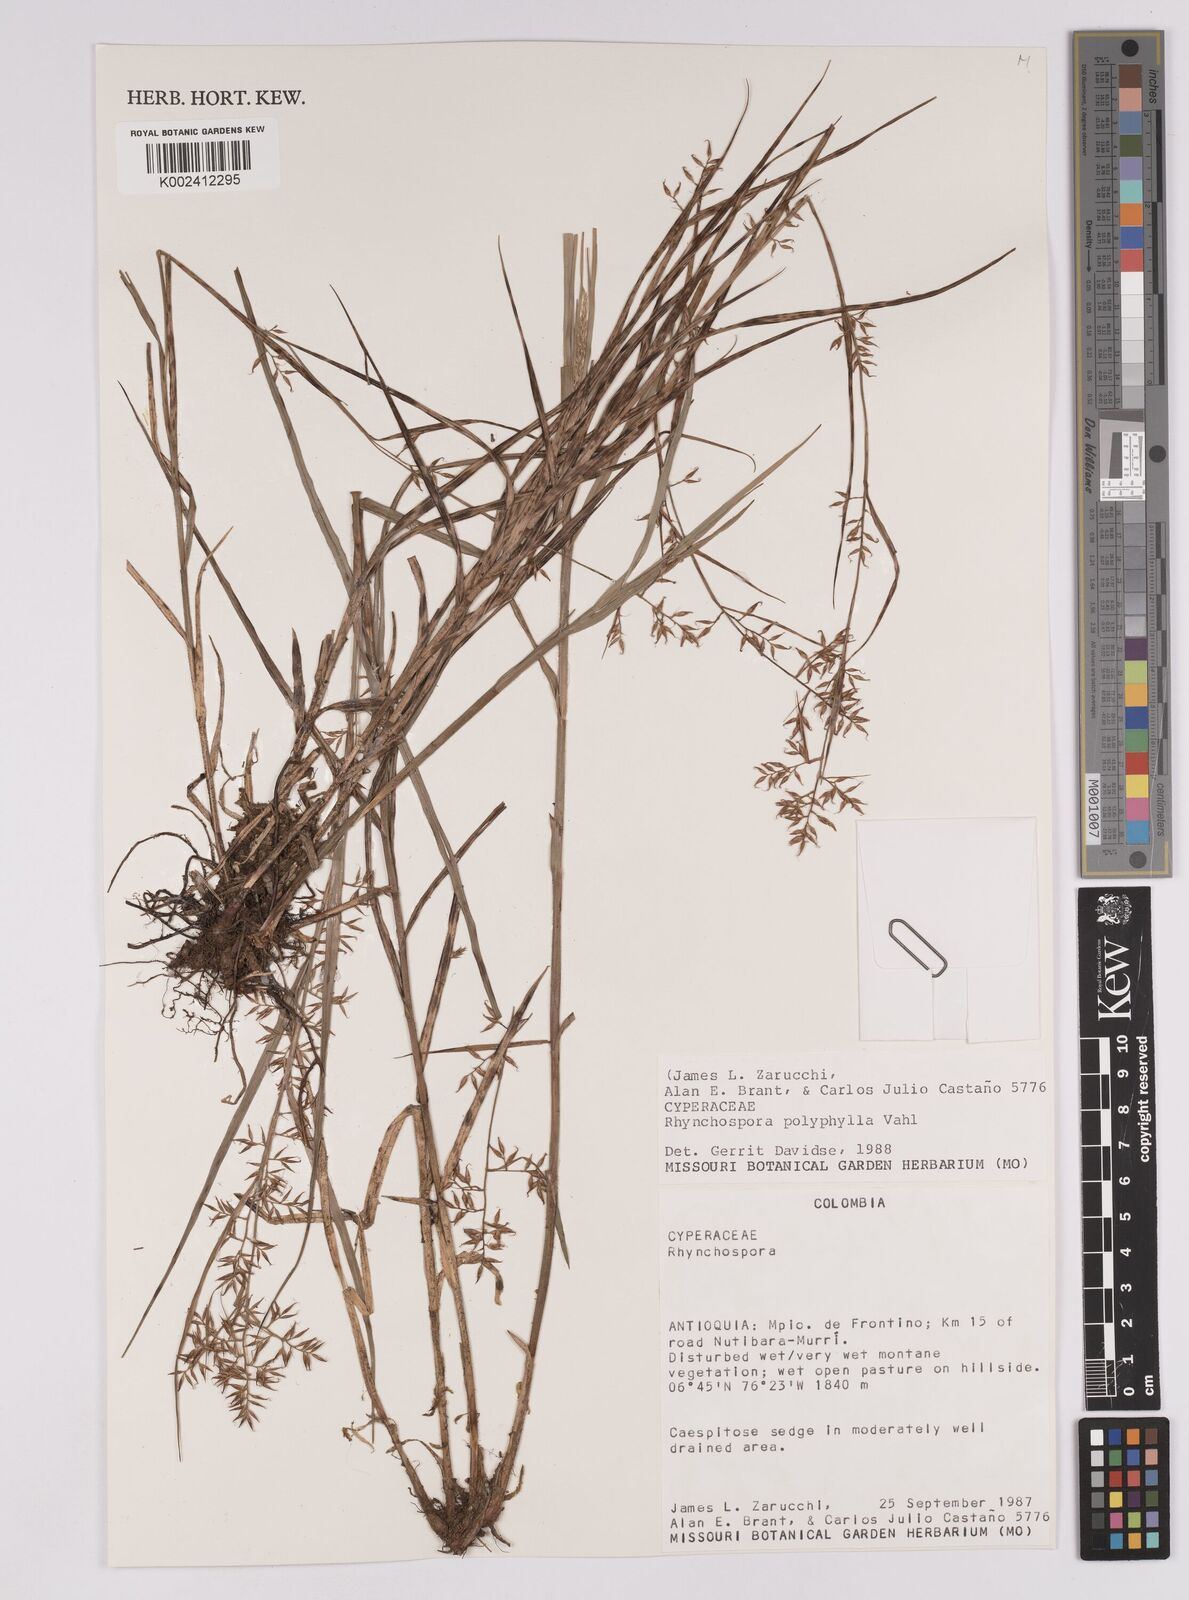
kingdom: Plantae
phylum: Tracheophyta
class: Liliopsida
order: Poales
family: Cyperaceae
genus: Rhynchospora
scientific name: Rhynchospora polyphylla
